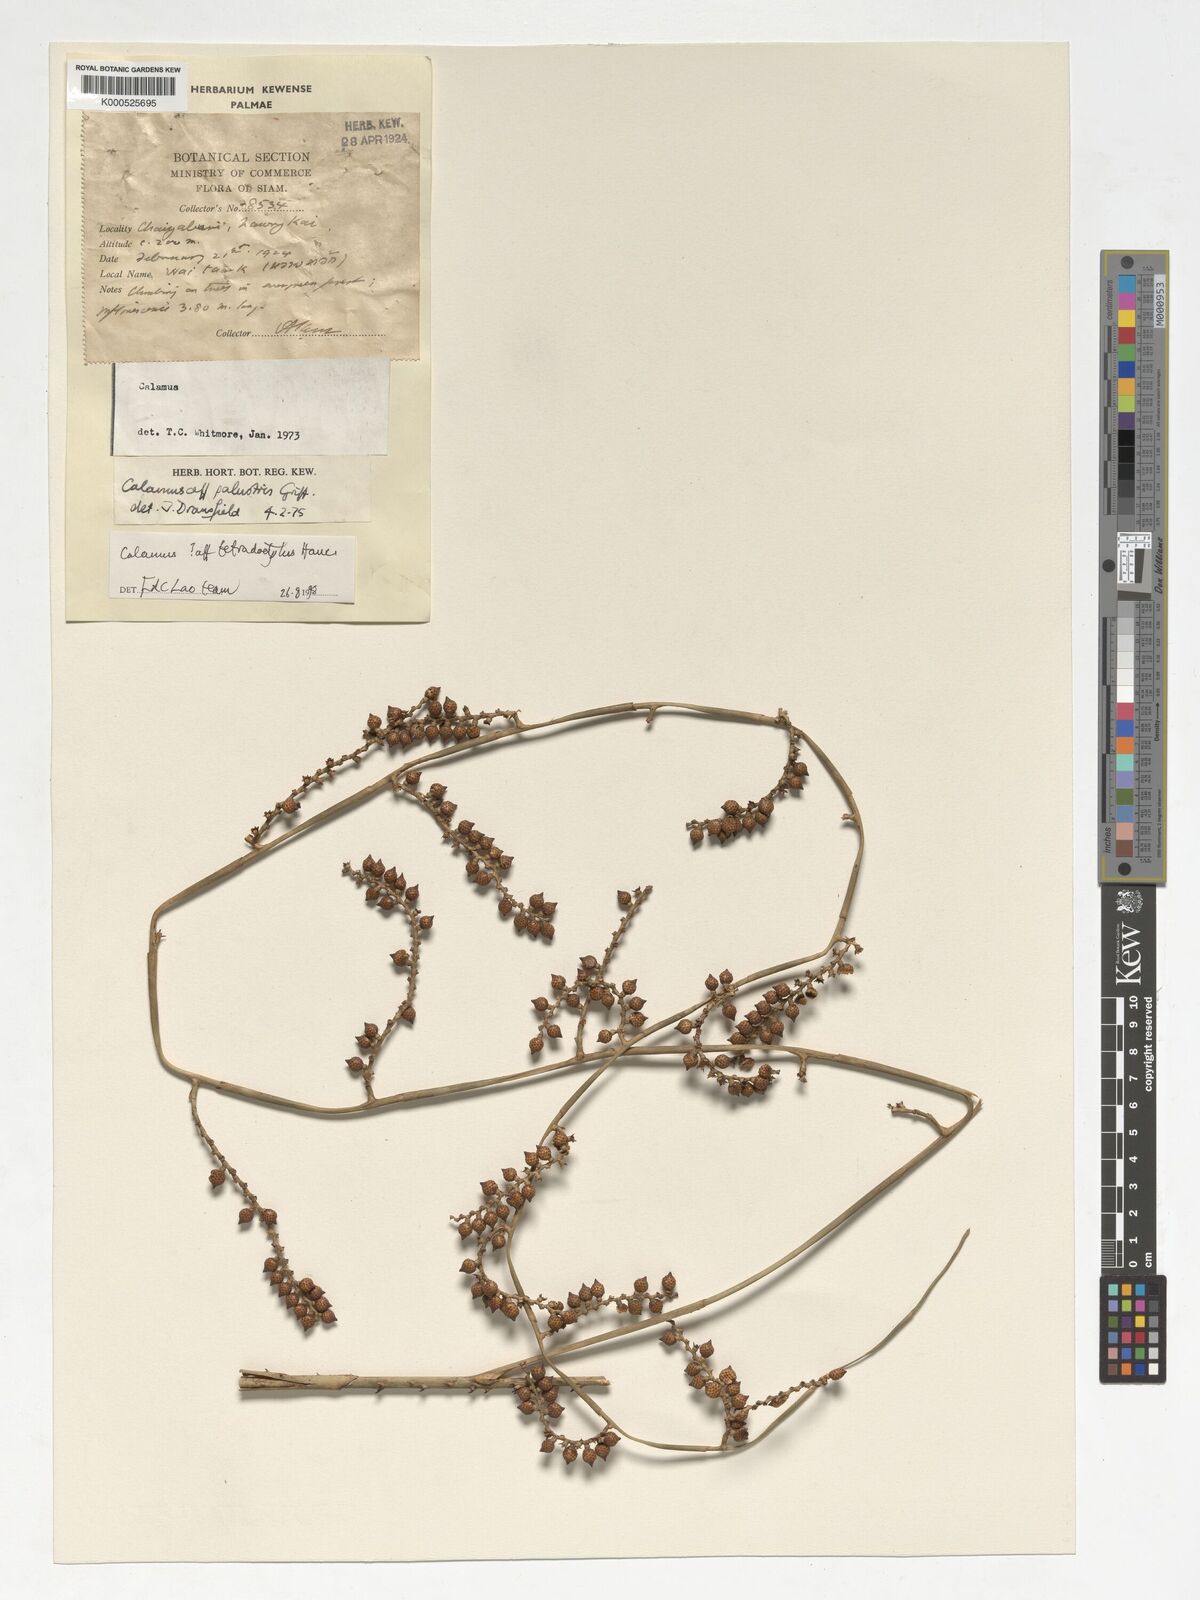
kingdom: Plantae
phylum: Tracheophyta
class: Liliopsida
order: Arecales
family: Arecaceae
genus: Calamus
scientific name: Calamus tetradactylus
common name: White rattan
